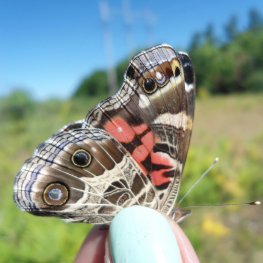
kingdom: Animalia
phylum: Arthropoda
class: Insecta
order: Lepidoptera
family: Nymphalidae
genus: Vanessa
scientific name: Vanessa virginiensis
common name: American Lady
